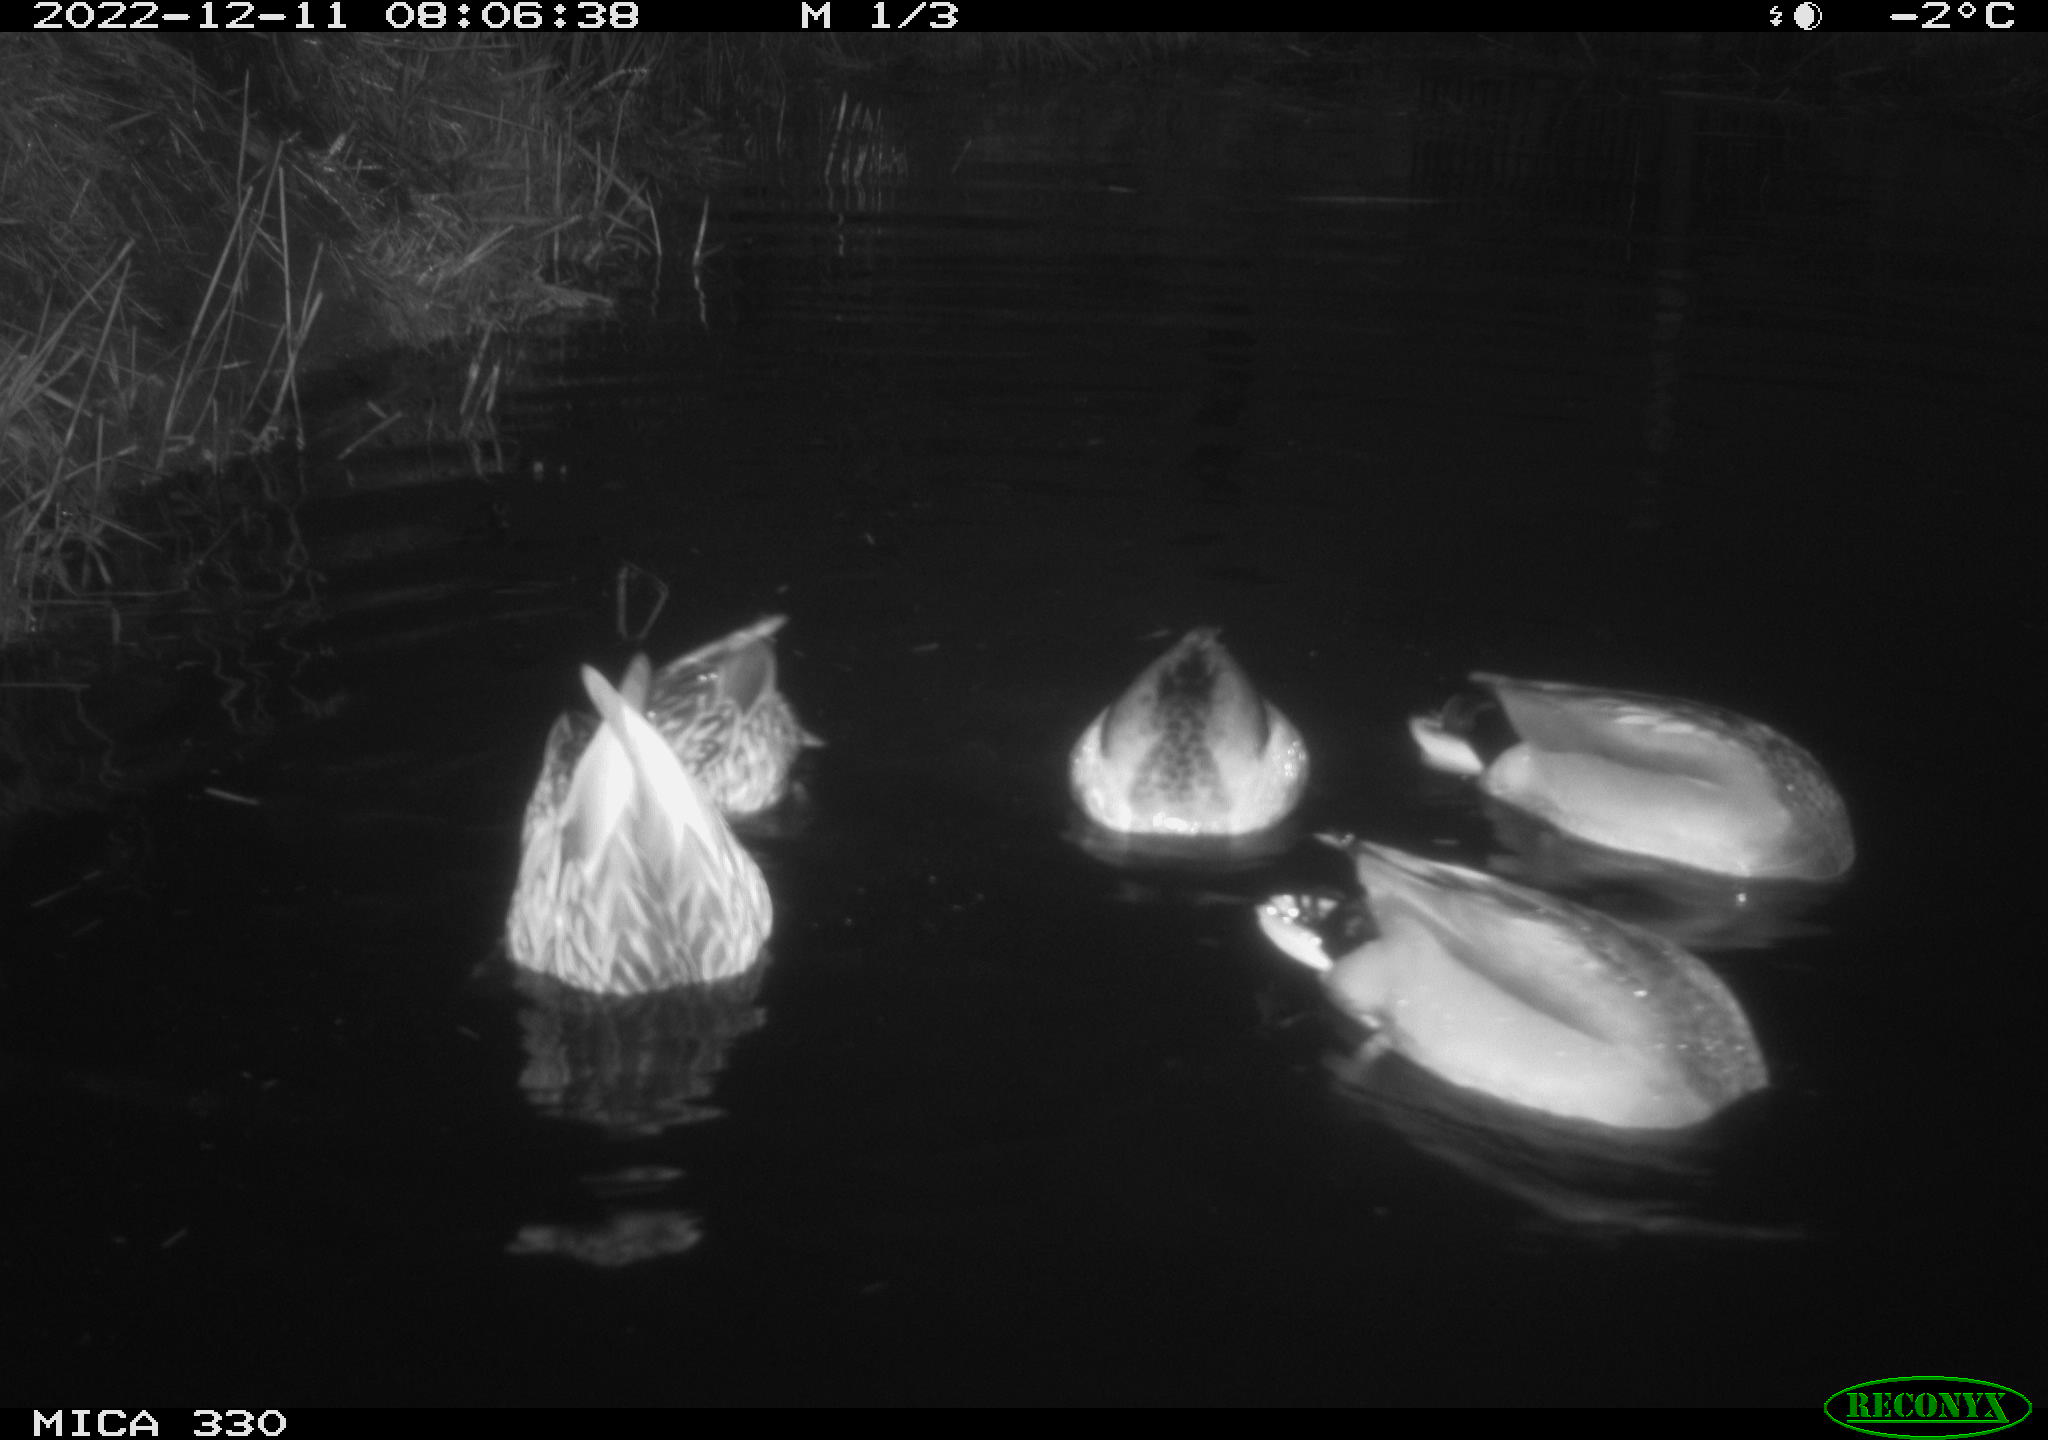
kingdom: Animalia
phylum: Chordata
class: Aves
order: Anseriformes
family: Anatidae
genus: Anas
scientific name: Anas
